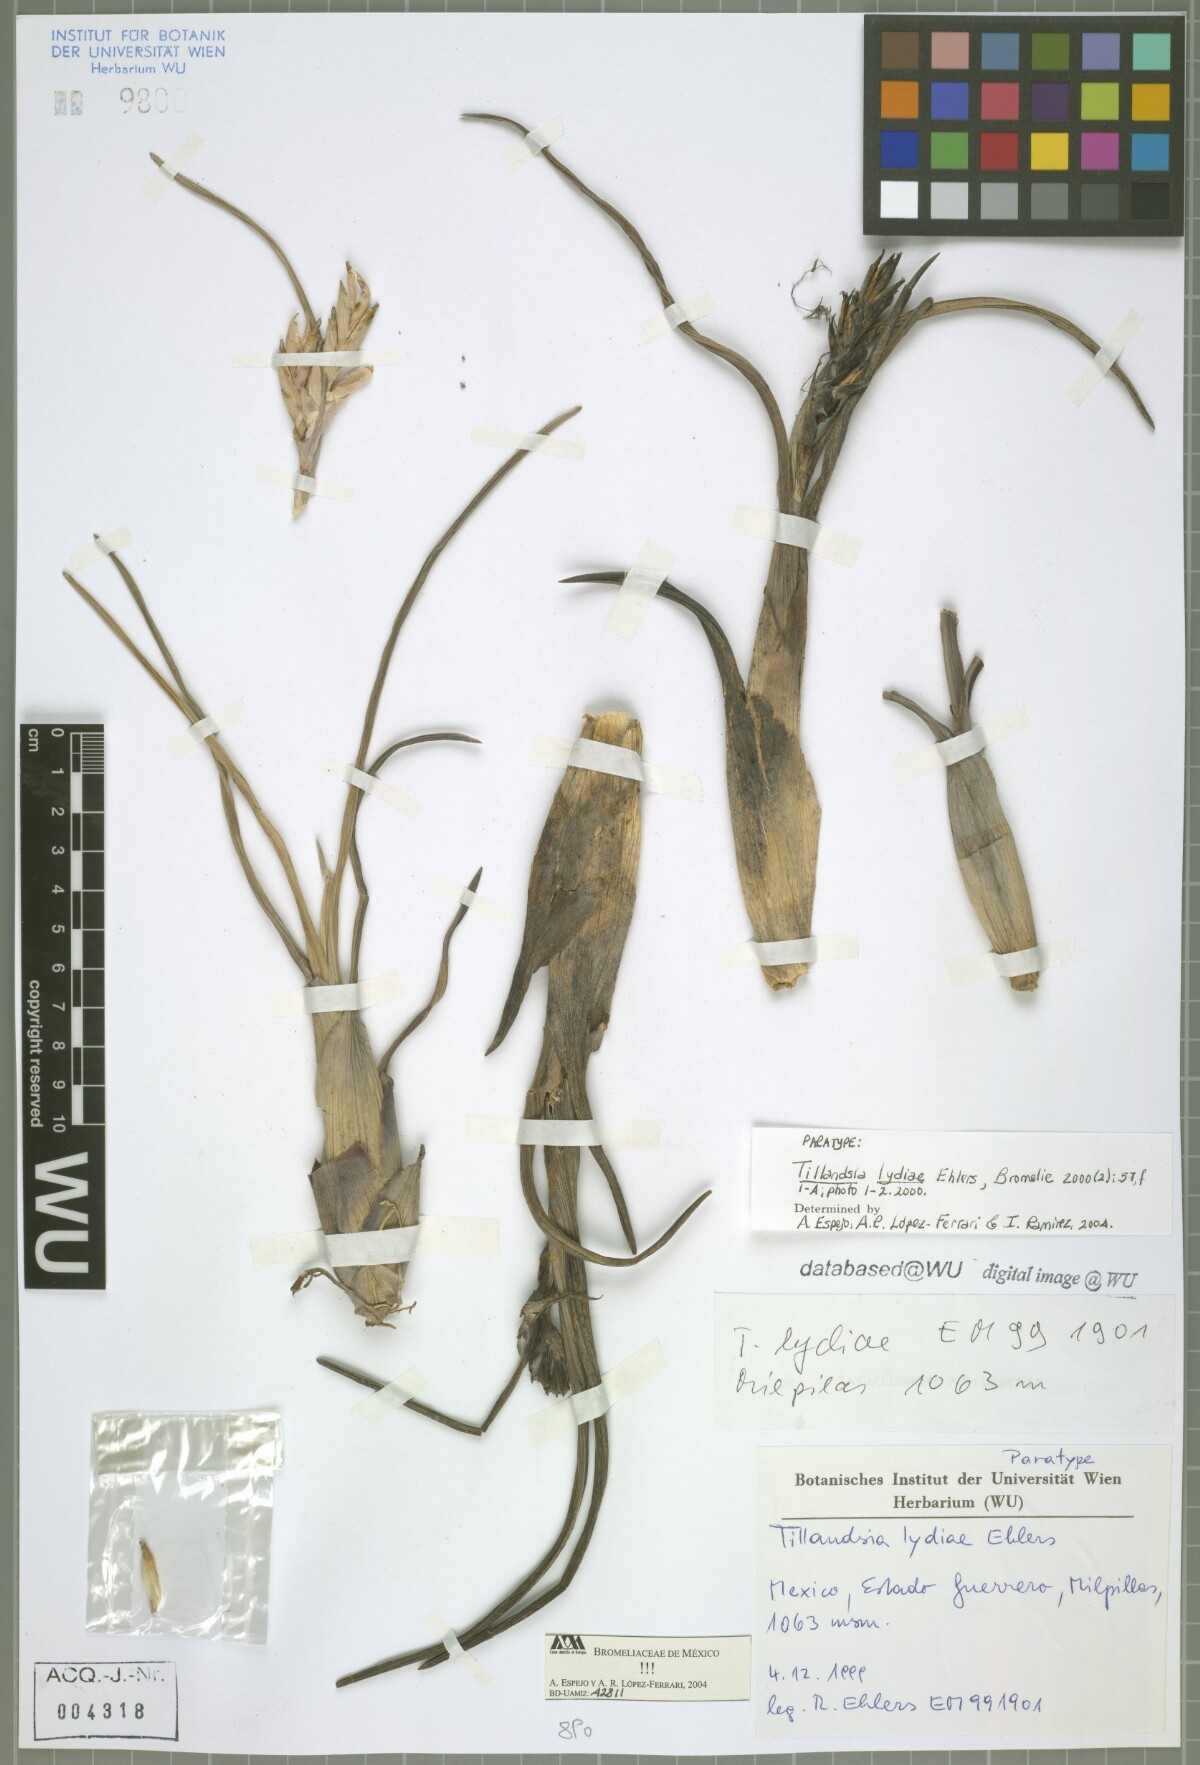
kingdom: Plantae
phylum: Tracheophyta
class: Liliopsida
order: Poales
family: Bromeliaceae
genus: Tillandsia
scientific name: Tillandsia lydiae
